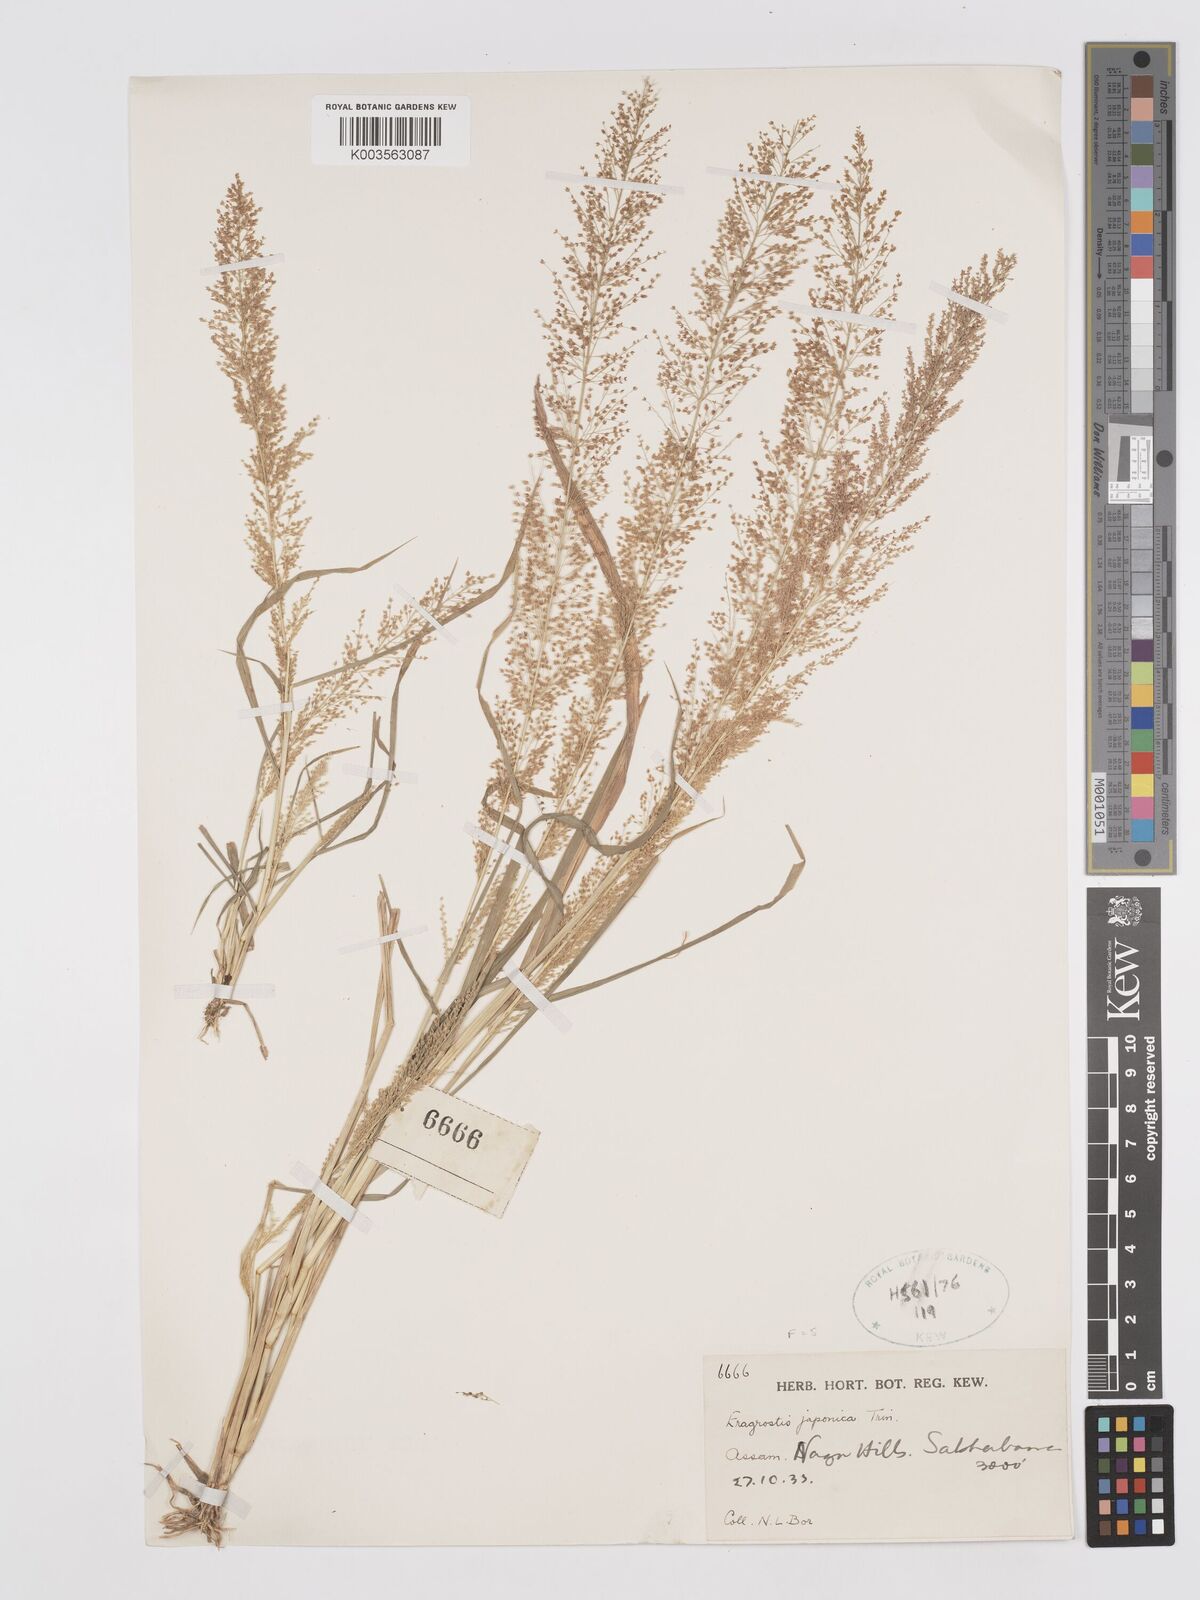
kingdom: Plantae
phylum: Tracheophyta
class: Liliopsida
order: Poales
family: Poaceae
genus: Eragrostis
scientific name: Eragrostis japonica
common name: Pond lovegrass
